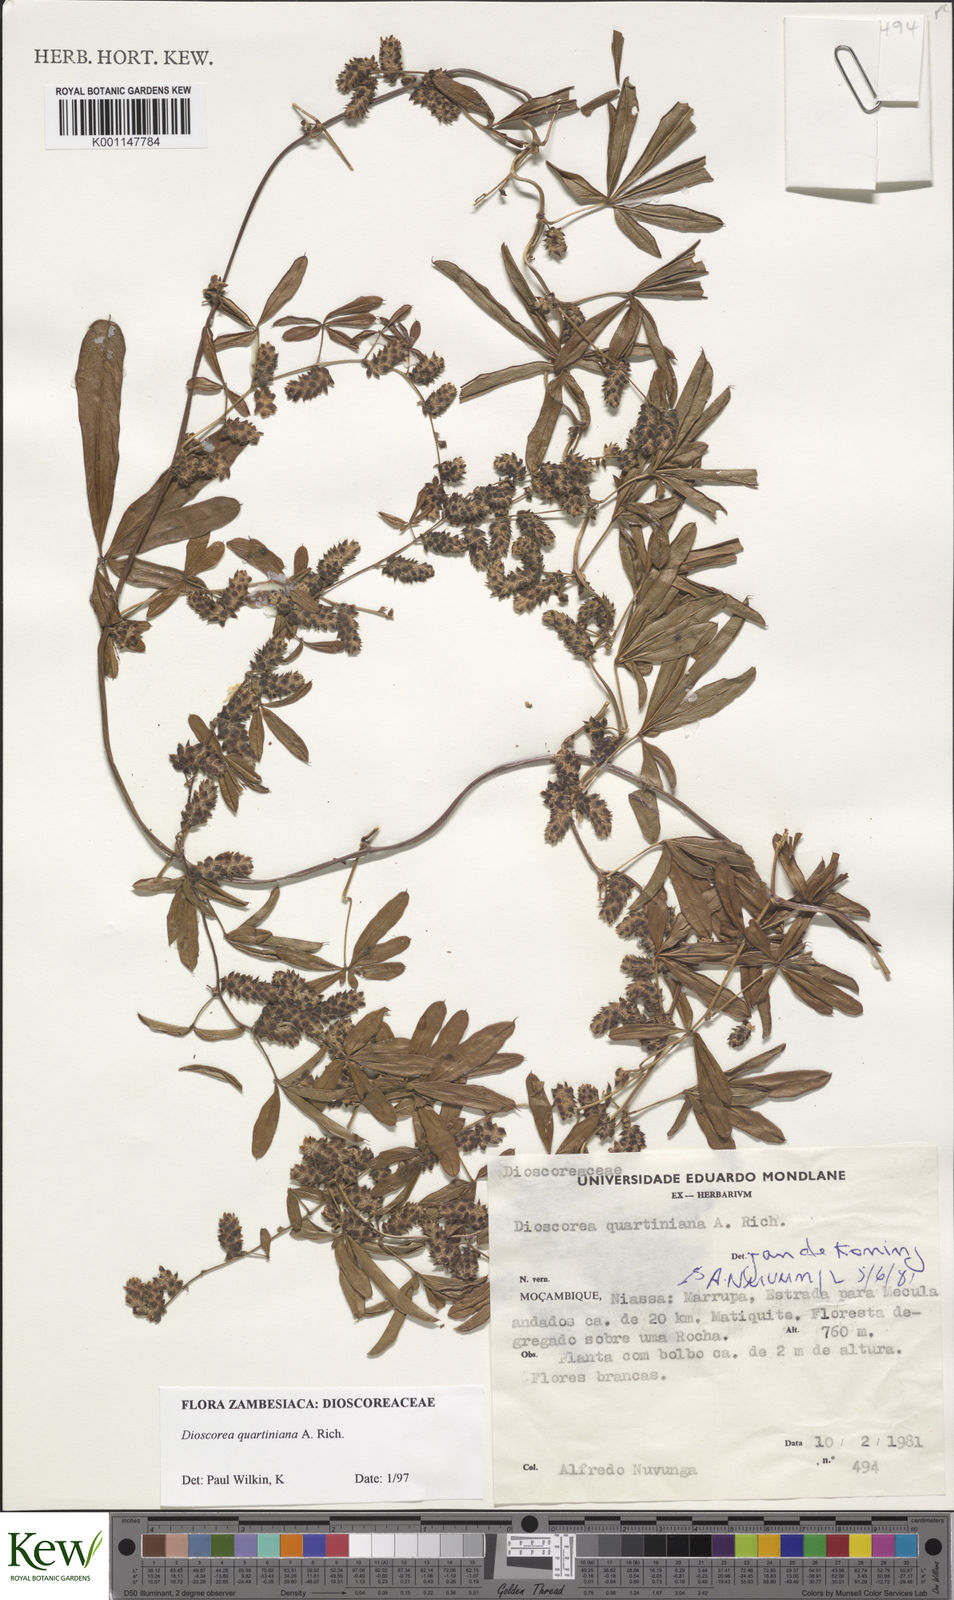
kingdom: Plantae
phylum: Tracheophyta
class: Liliopsida
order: Dioscoreales
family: Dioscoreaceae
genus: Dioscorea
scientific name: Dioscorea quartiniana
